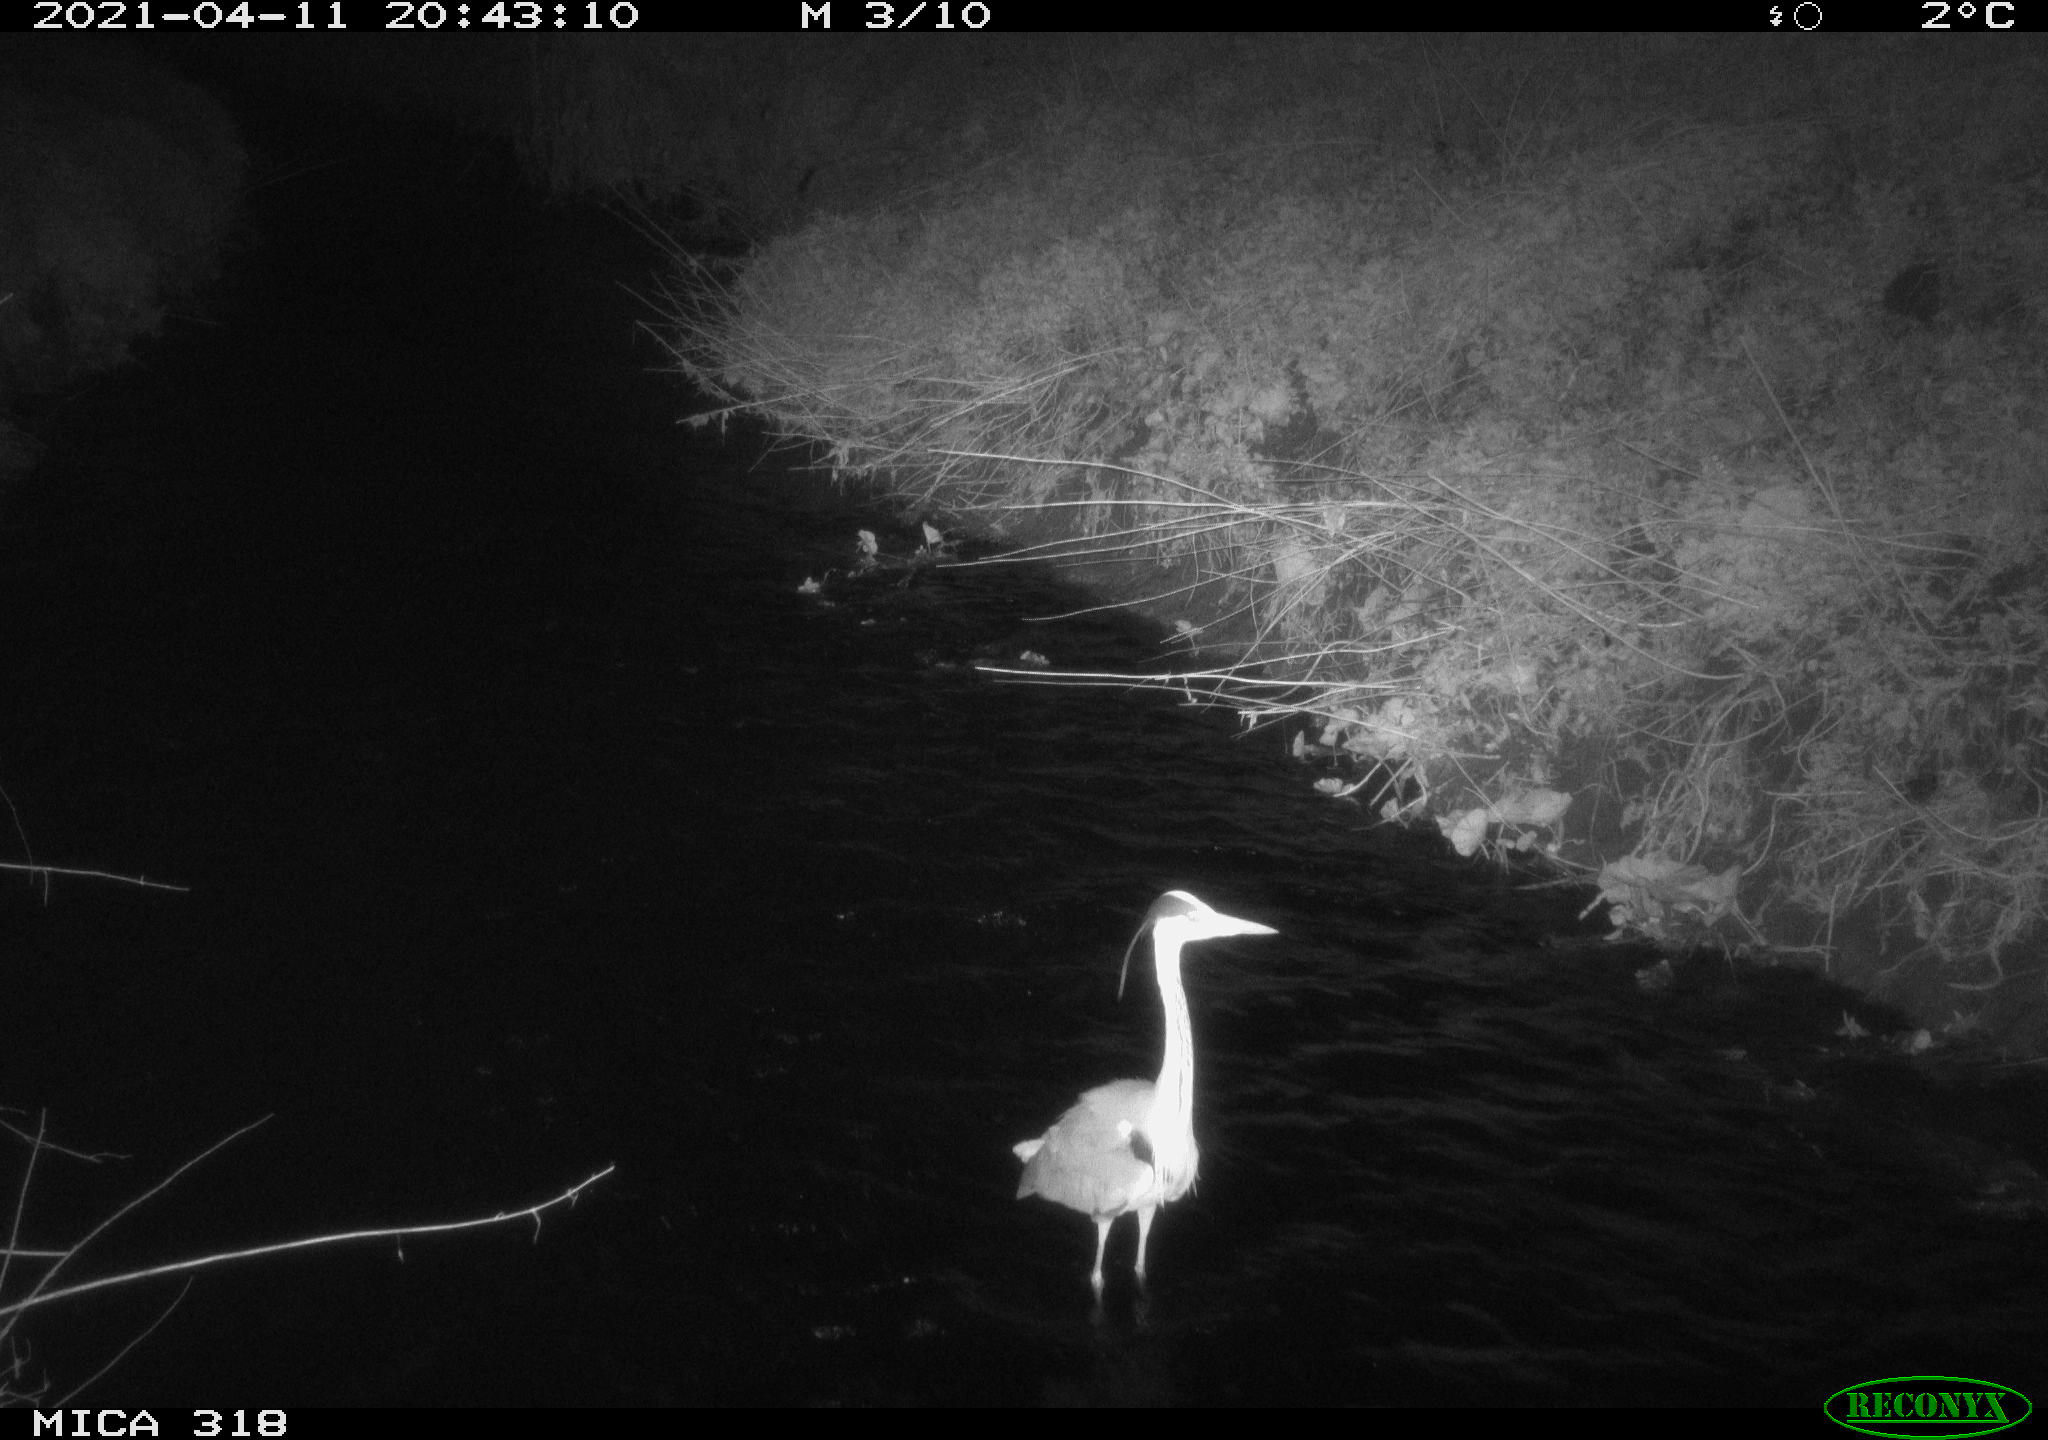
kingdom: Animalia
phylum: Chordata
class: Aves
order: Pelecaniformes
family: Ardeidae
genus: Ardea
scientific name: Ardea cinerea
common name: Grey heron
